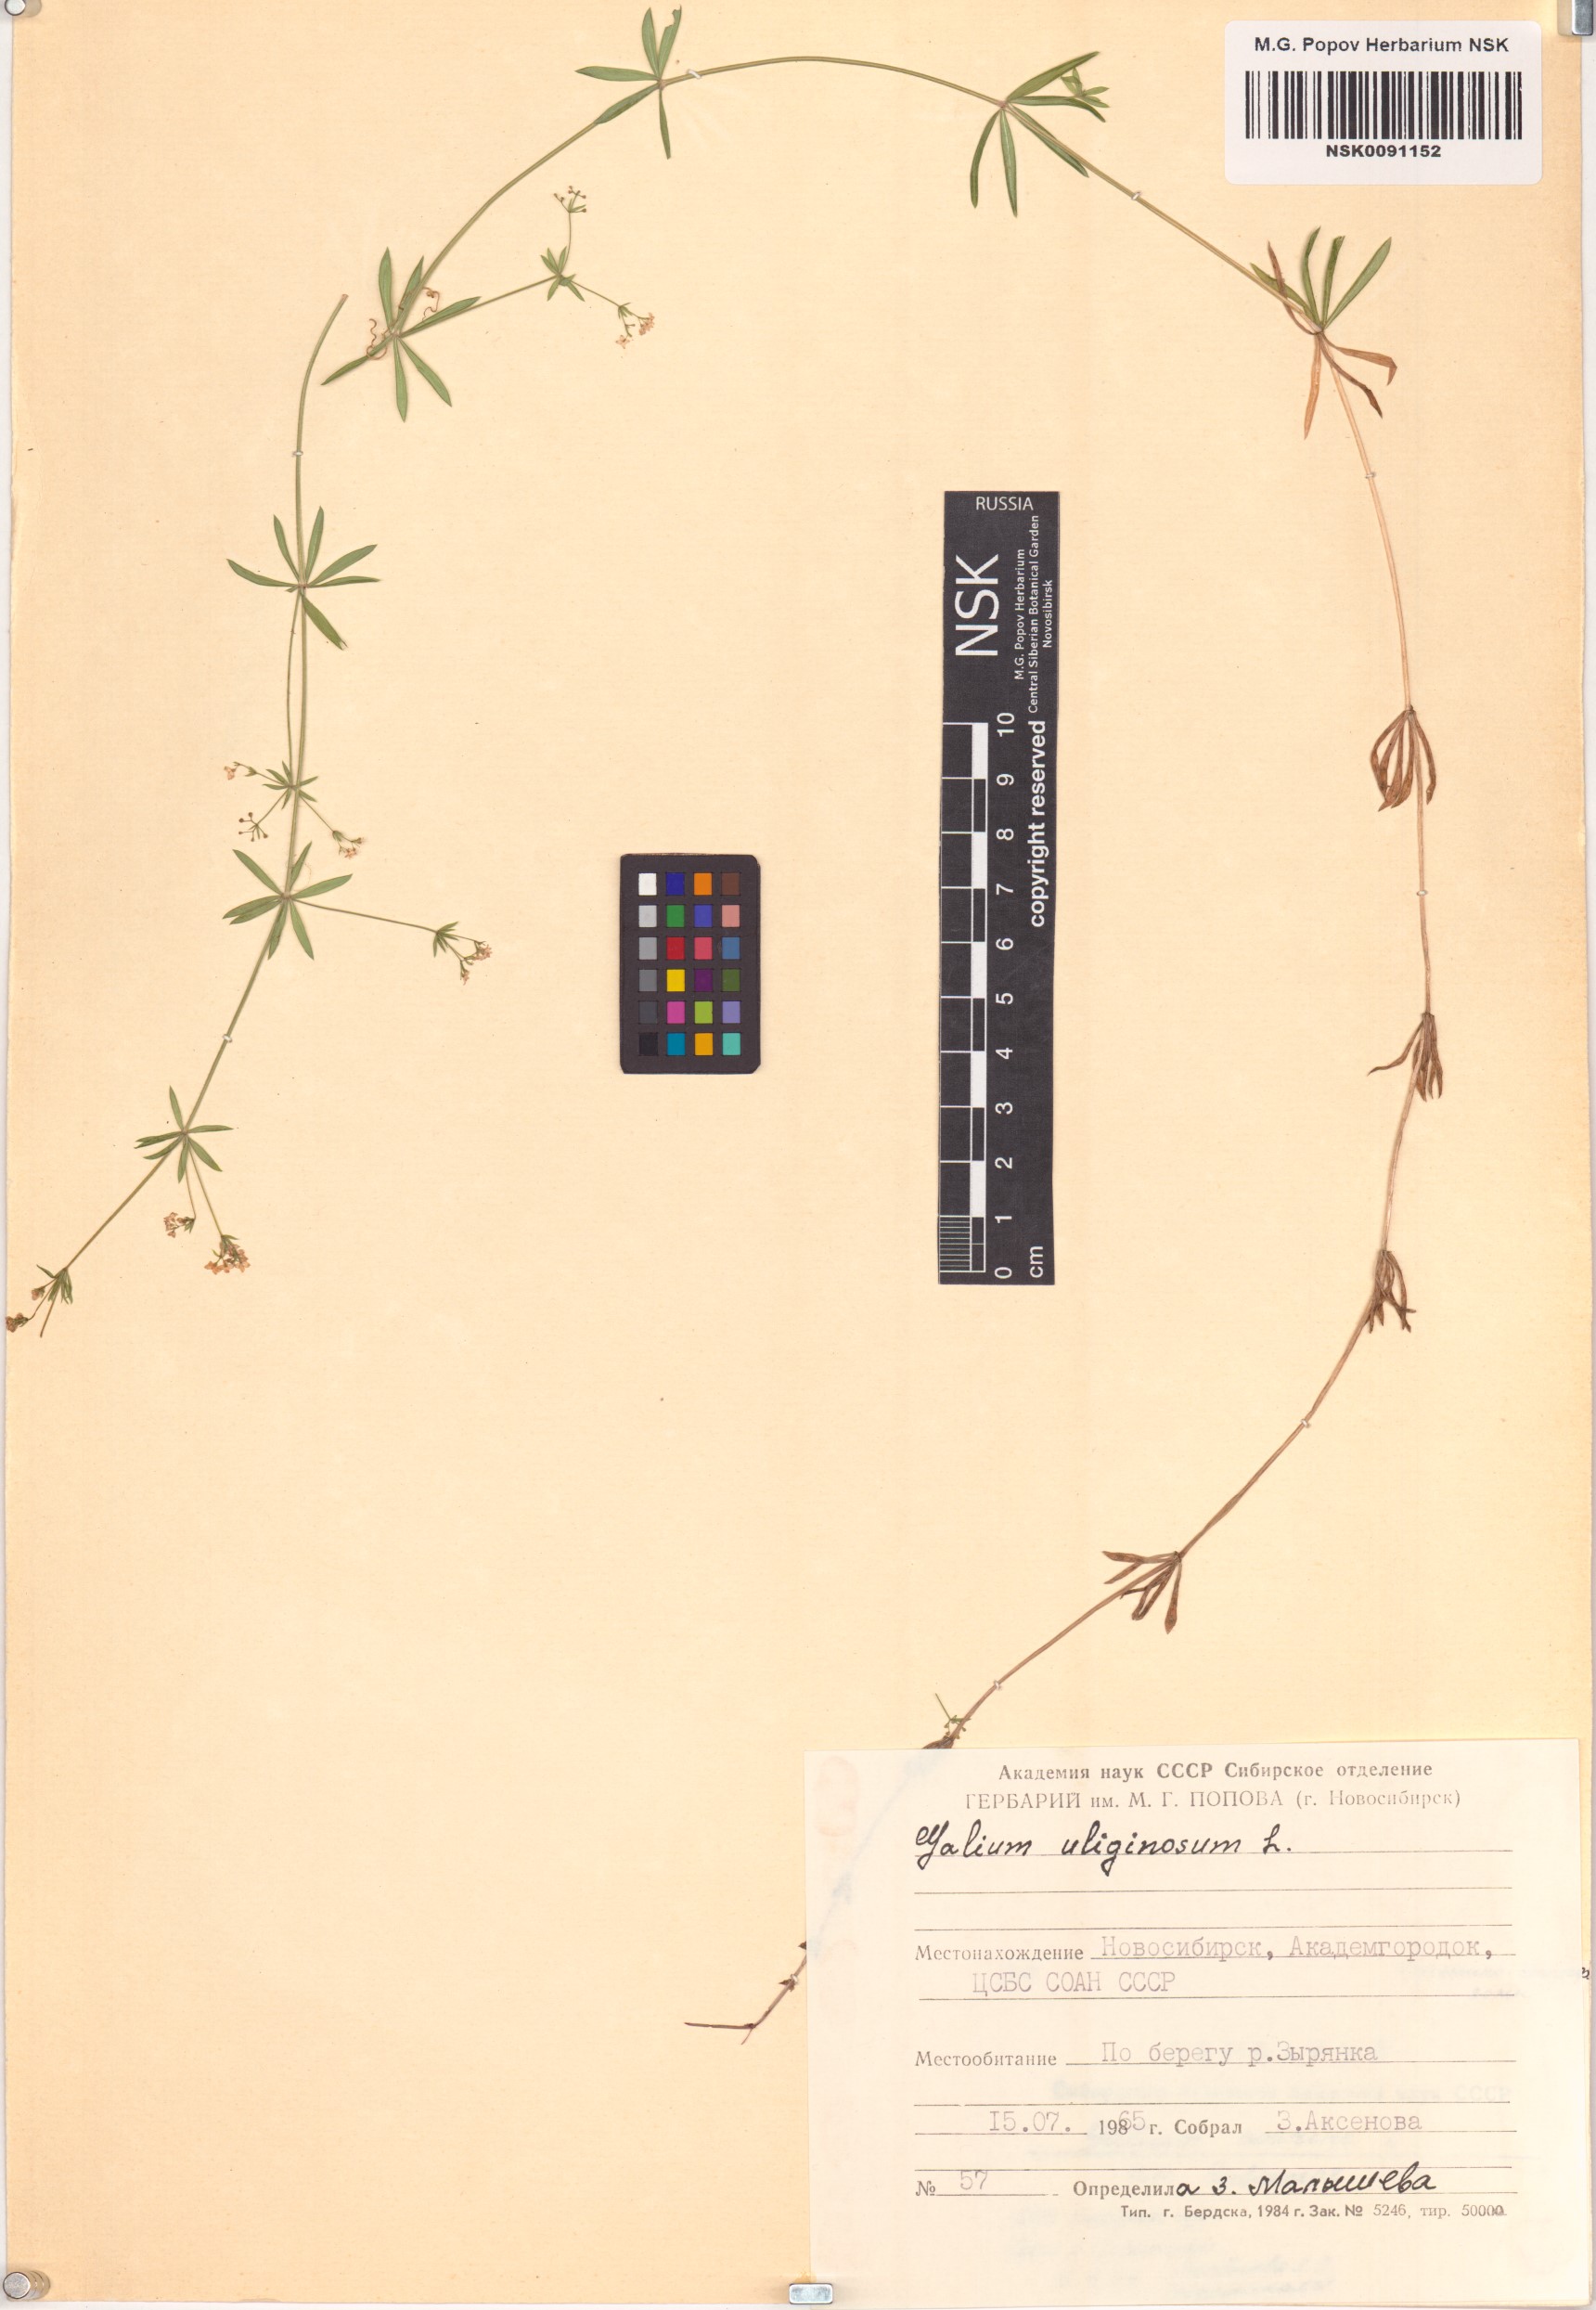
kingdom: Plantae
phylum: Tracheophyta
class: Magnoliopsida
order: Gentianales
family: Rubiaceae
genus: Galium
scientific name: Galium uliginosum
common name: Fen bedstraw
